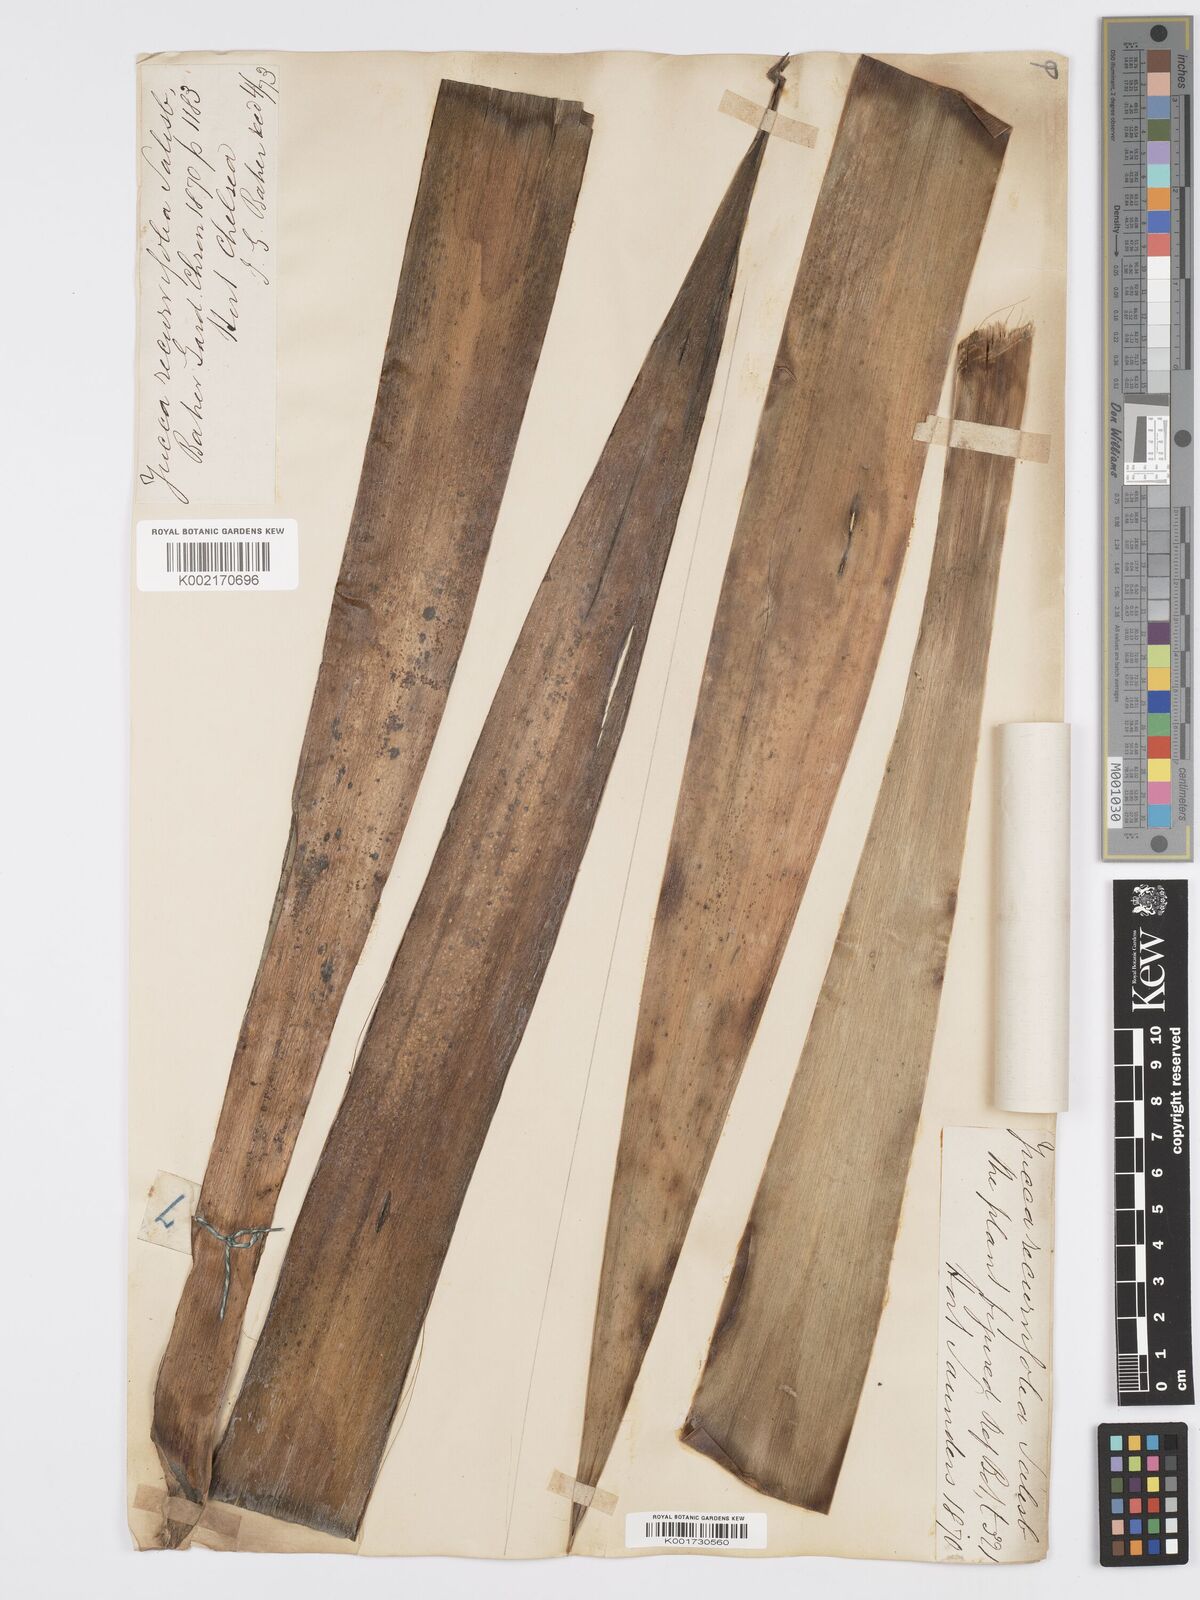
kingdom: Plantae
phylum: Tracheophyta
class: Liliopsida
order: Asparagales
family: Asparagaceae
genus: Yucca
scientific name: Yucca gloriosa
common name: Spanish-dagger
